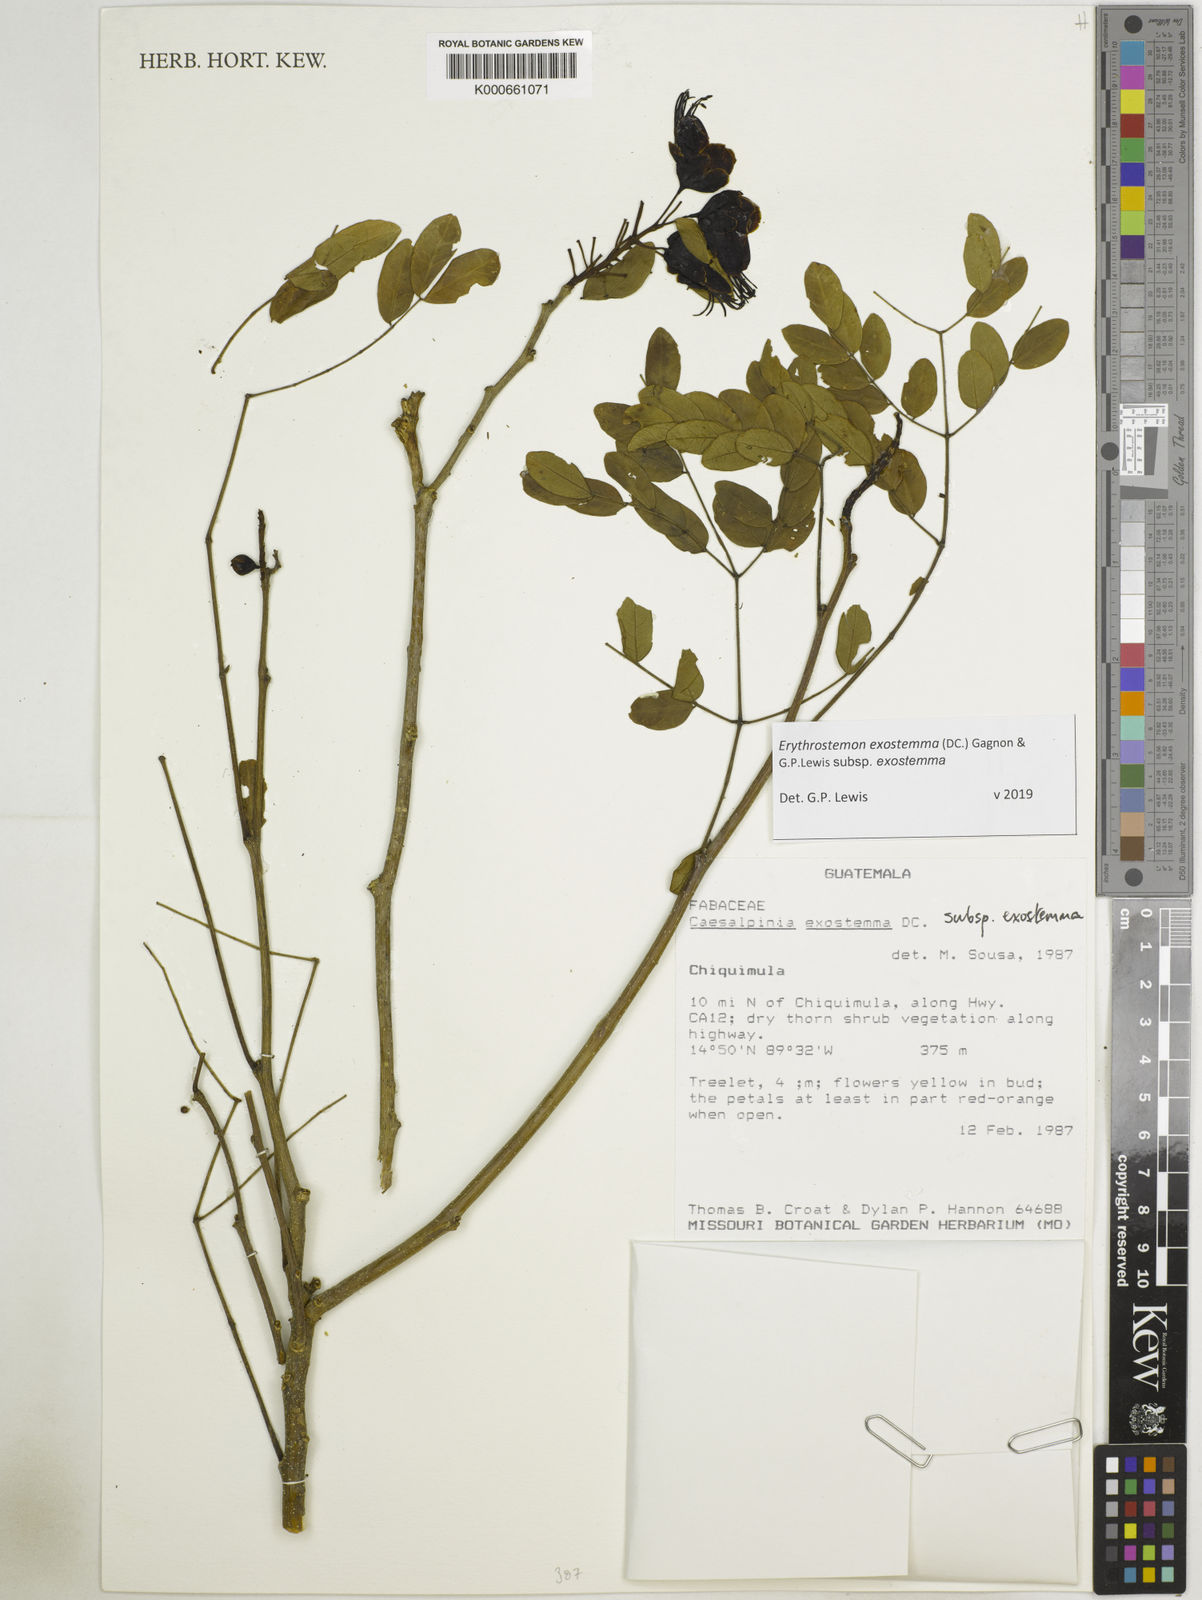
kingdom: Plantae
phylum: Tracheophyta
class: Magnoliopsida
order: Fabales
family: Fabaceae
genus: Erythrostemon
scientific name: Erythrostemon exostemma
